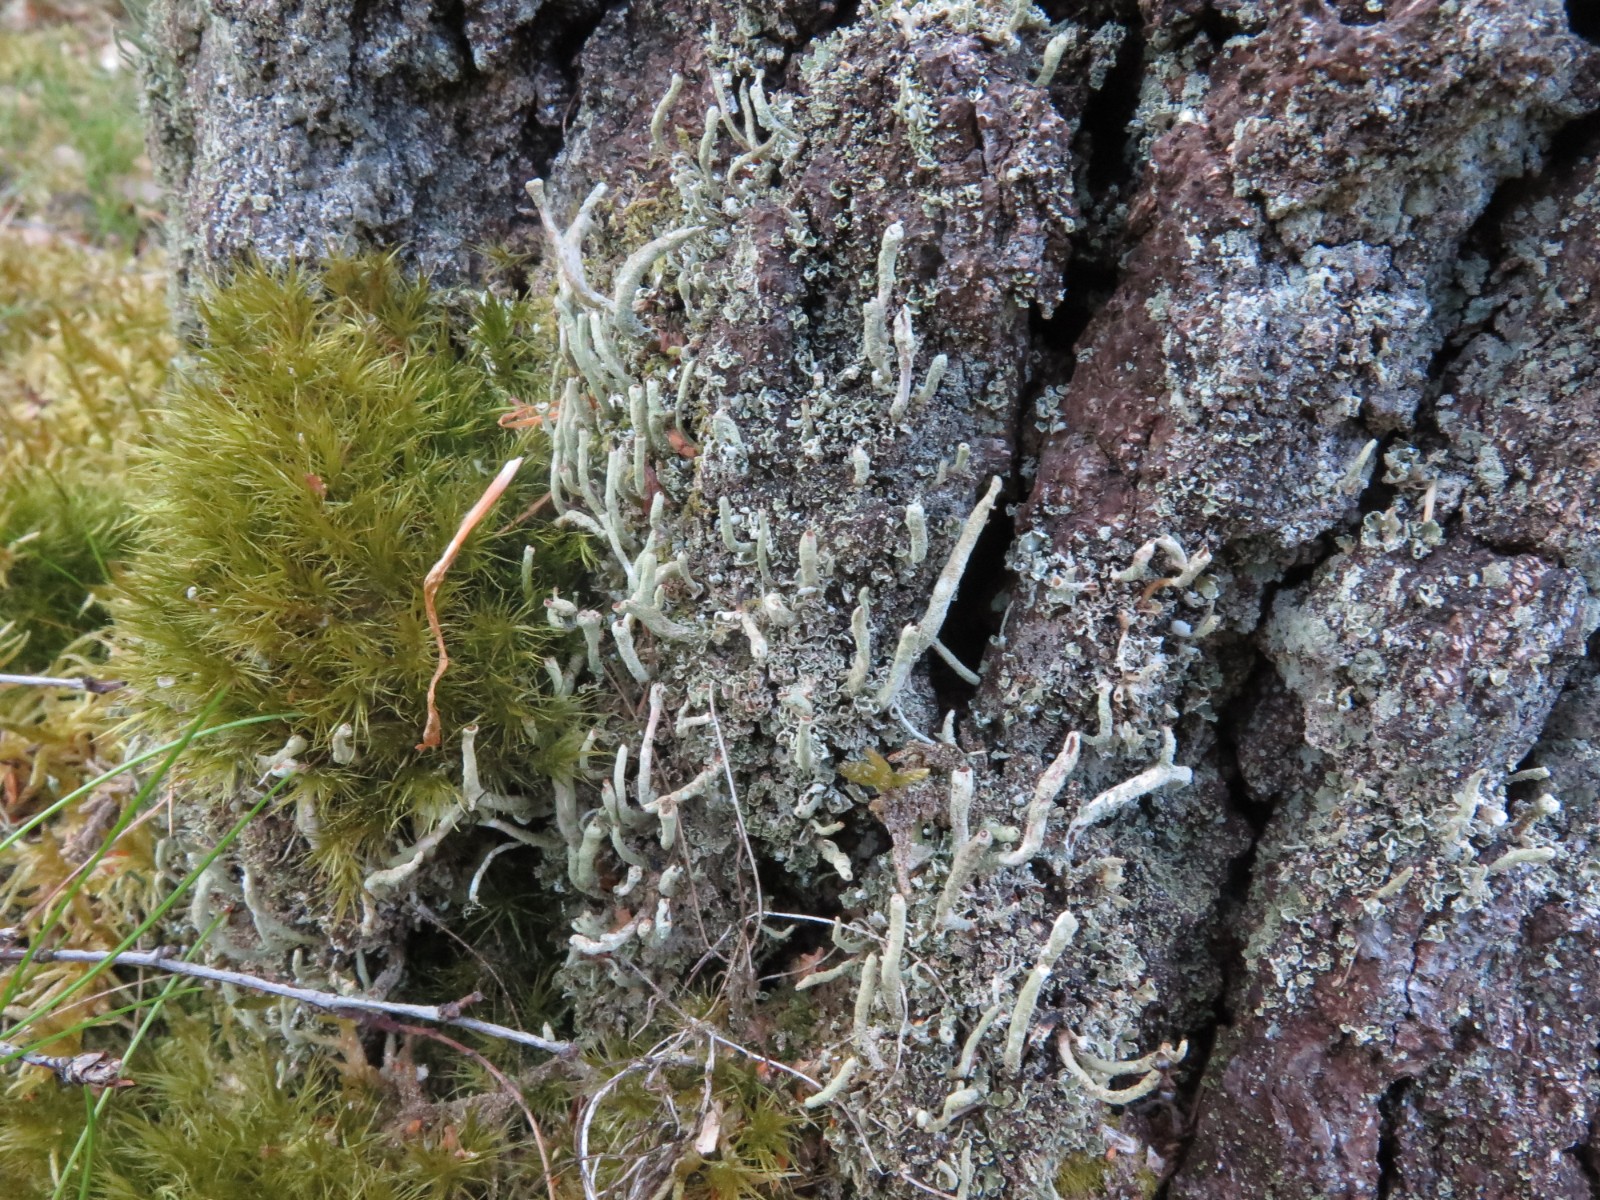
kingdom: Fungi
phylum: Ascomycota
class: Lecanoromycetes
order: Lecanorales
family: Cladoniaceae
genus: Cladonia
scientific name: Cladonia ochrochlora
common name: stød-bægerlav
